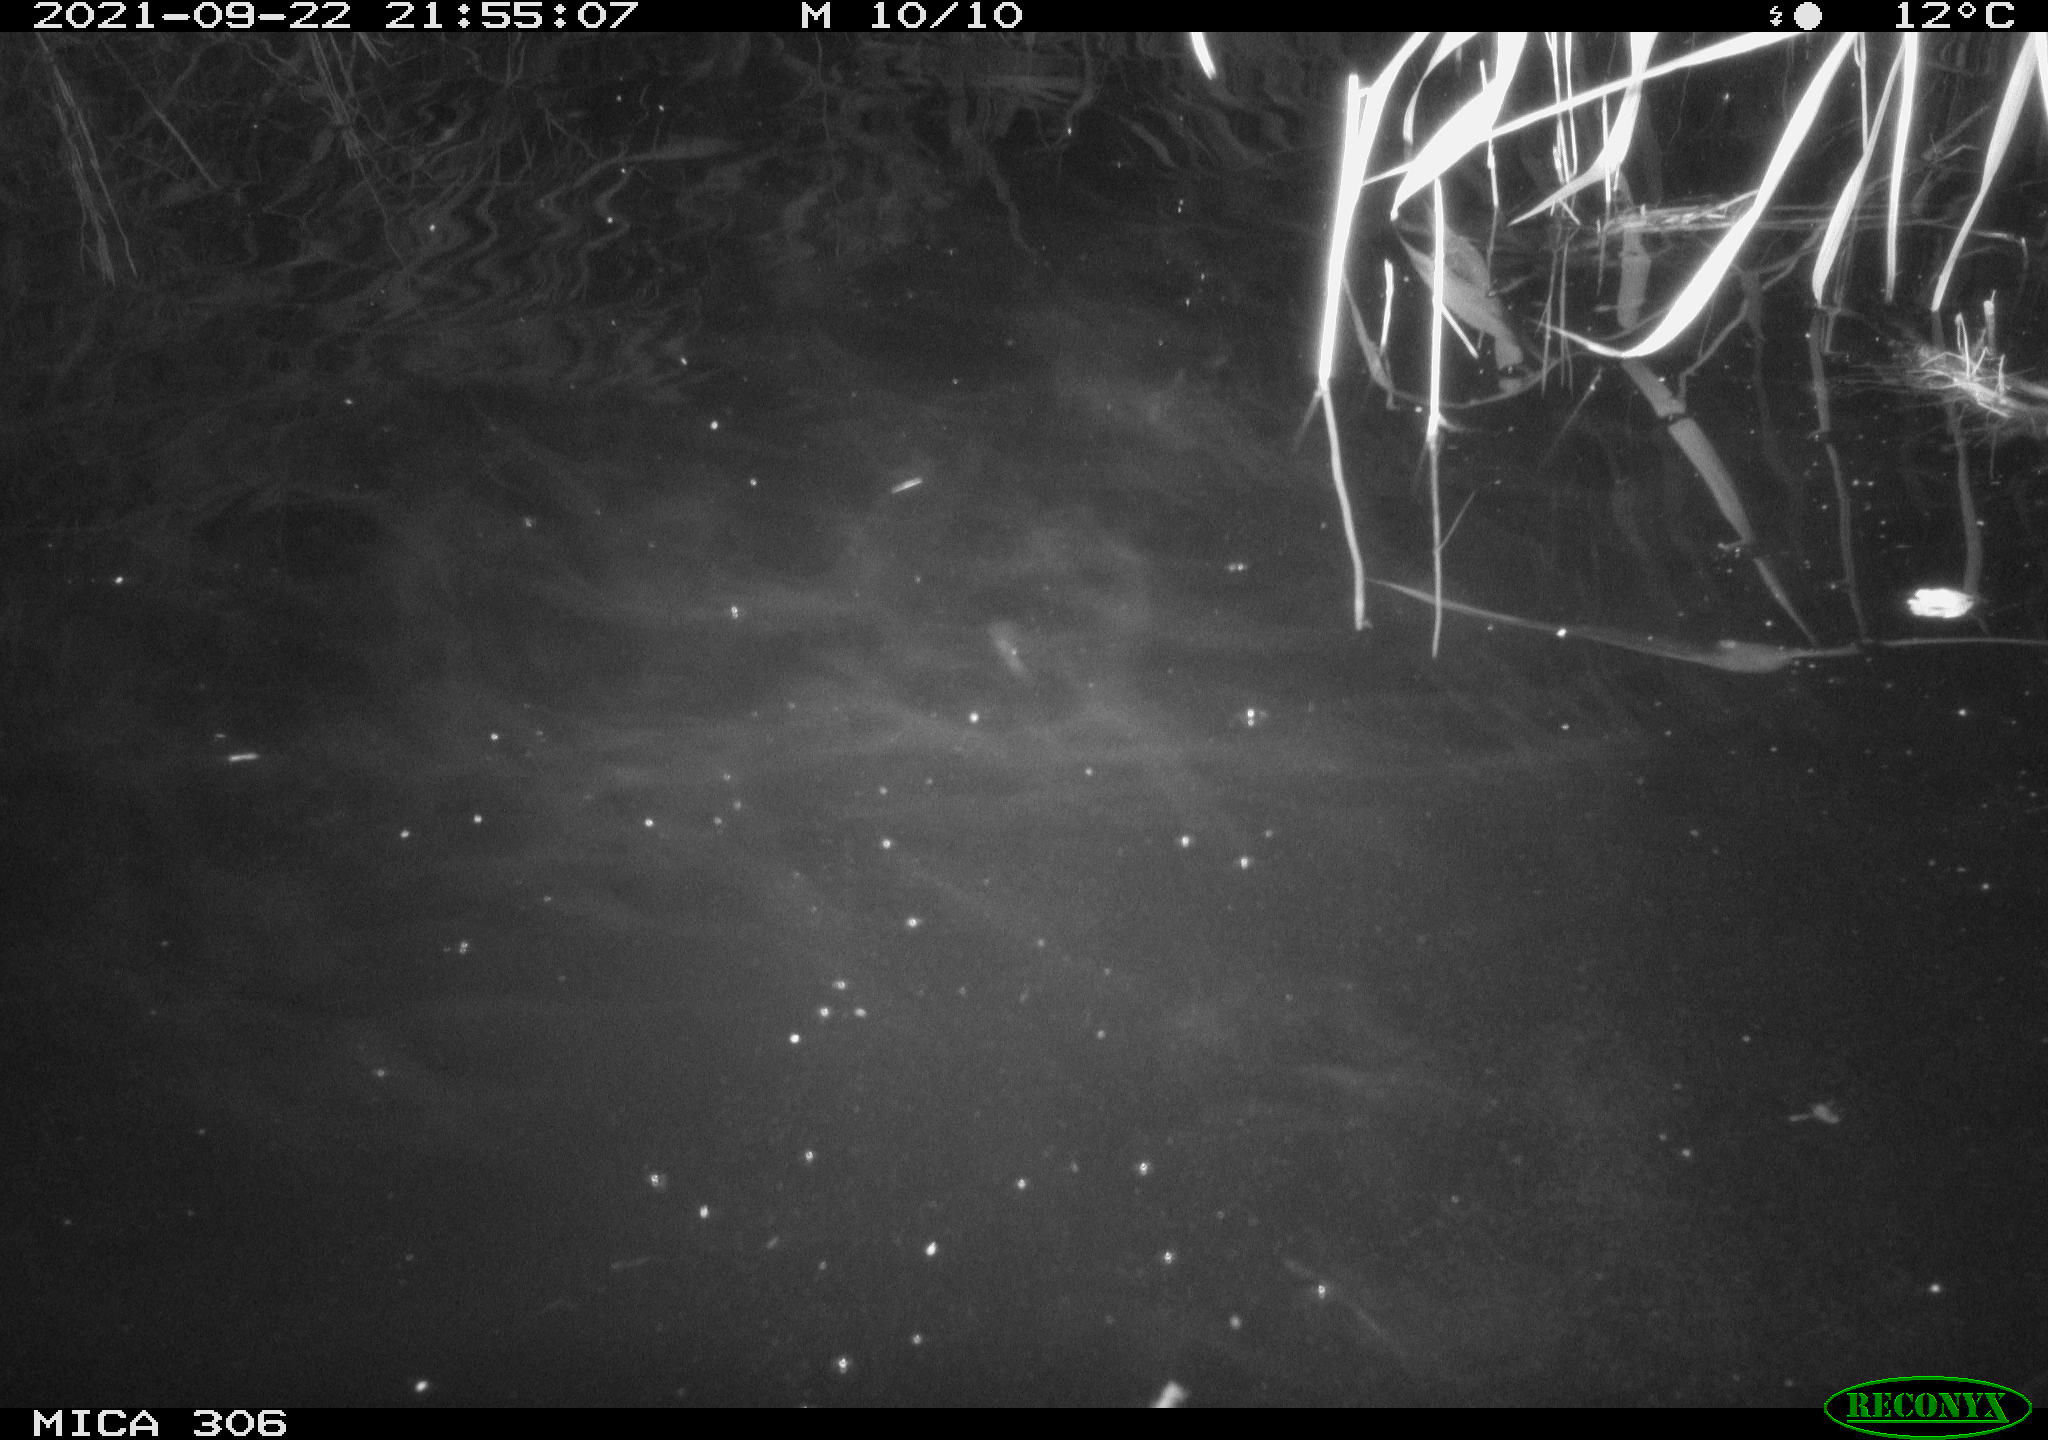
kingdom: Animalia
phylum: Chordata
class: Mammalia
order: Rodentia
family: Cricetidae
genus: Ondatra
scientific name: Ondatra zibethicus
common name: Muskrat
